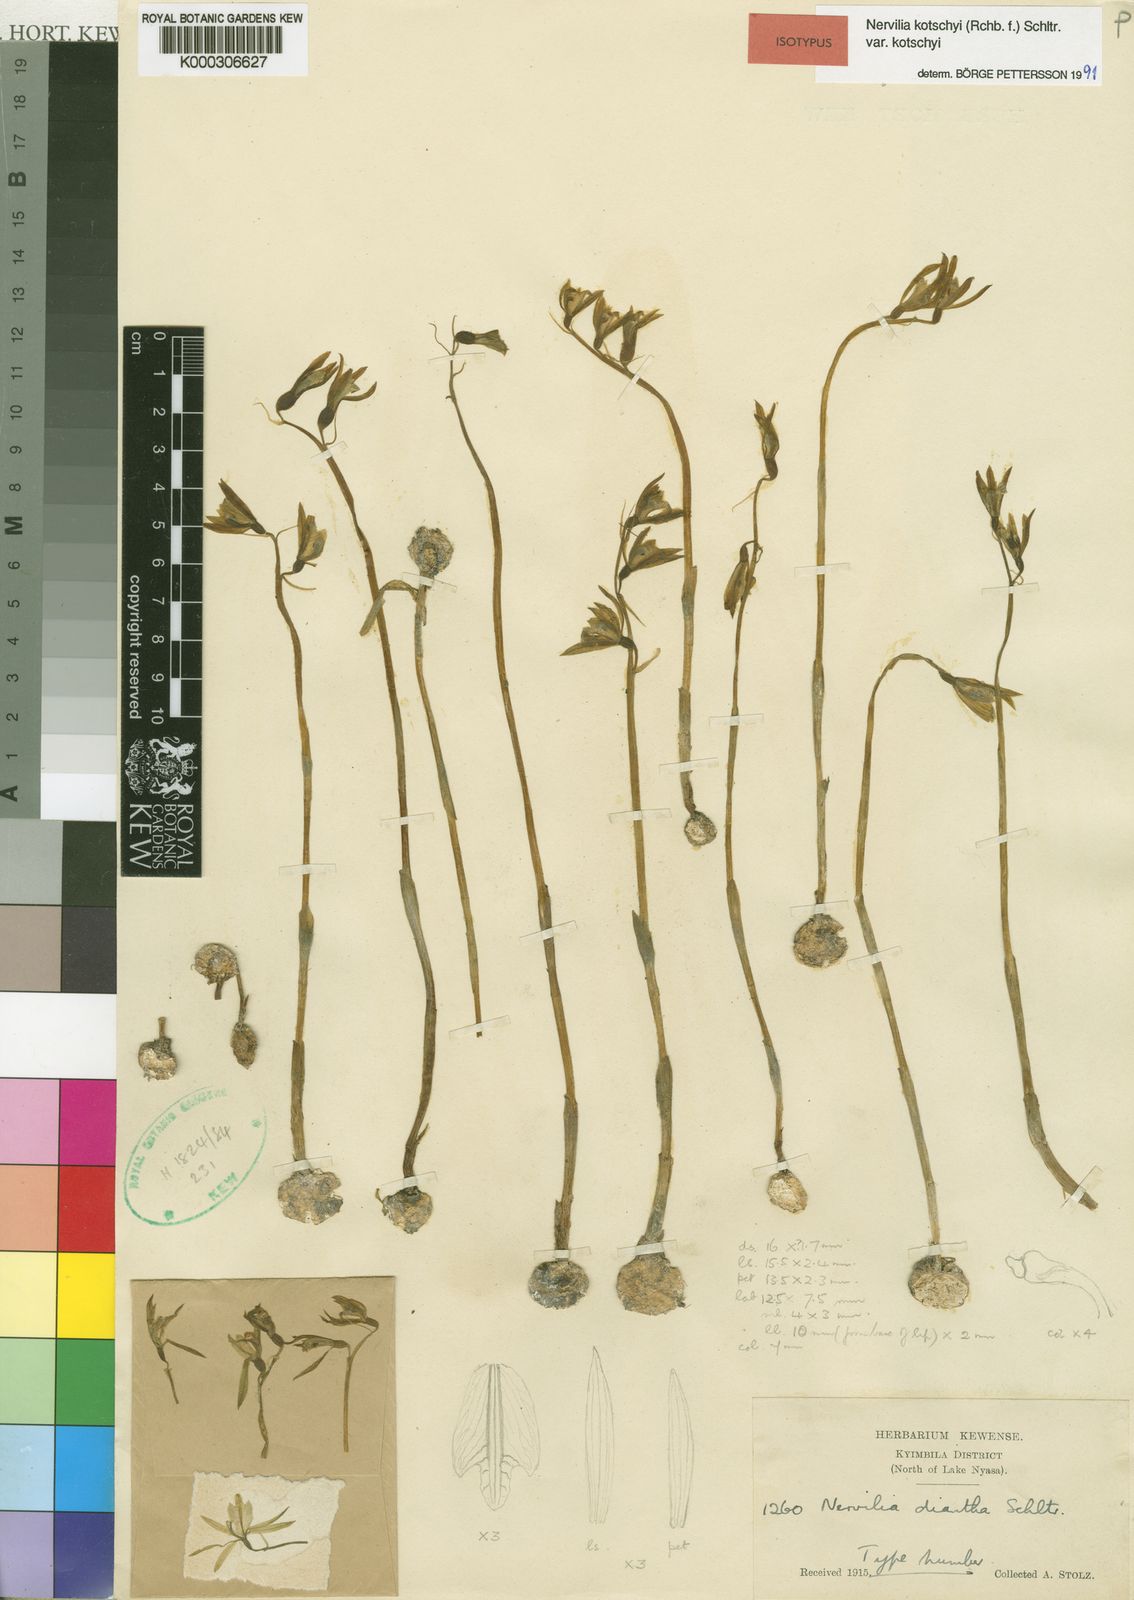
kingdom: Plantae
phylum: Tracheophyta
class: Liliopsida
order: Asparagales
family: Orchidaceae
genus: Nervilia
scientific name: Nervilia kotschyi
